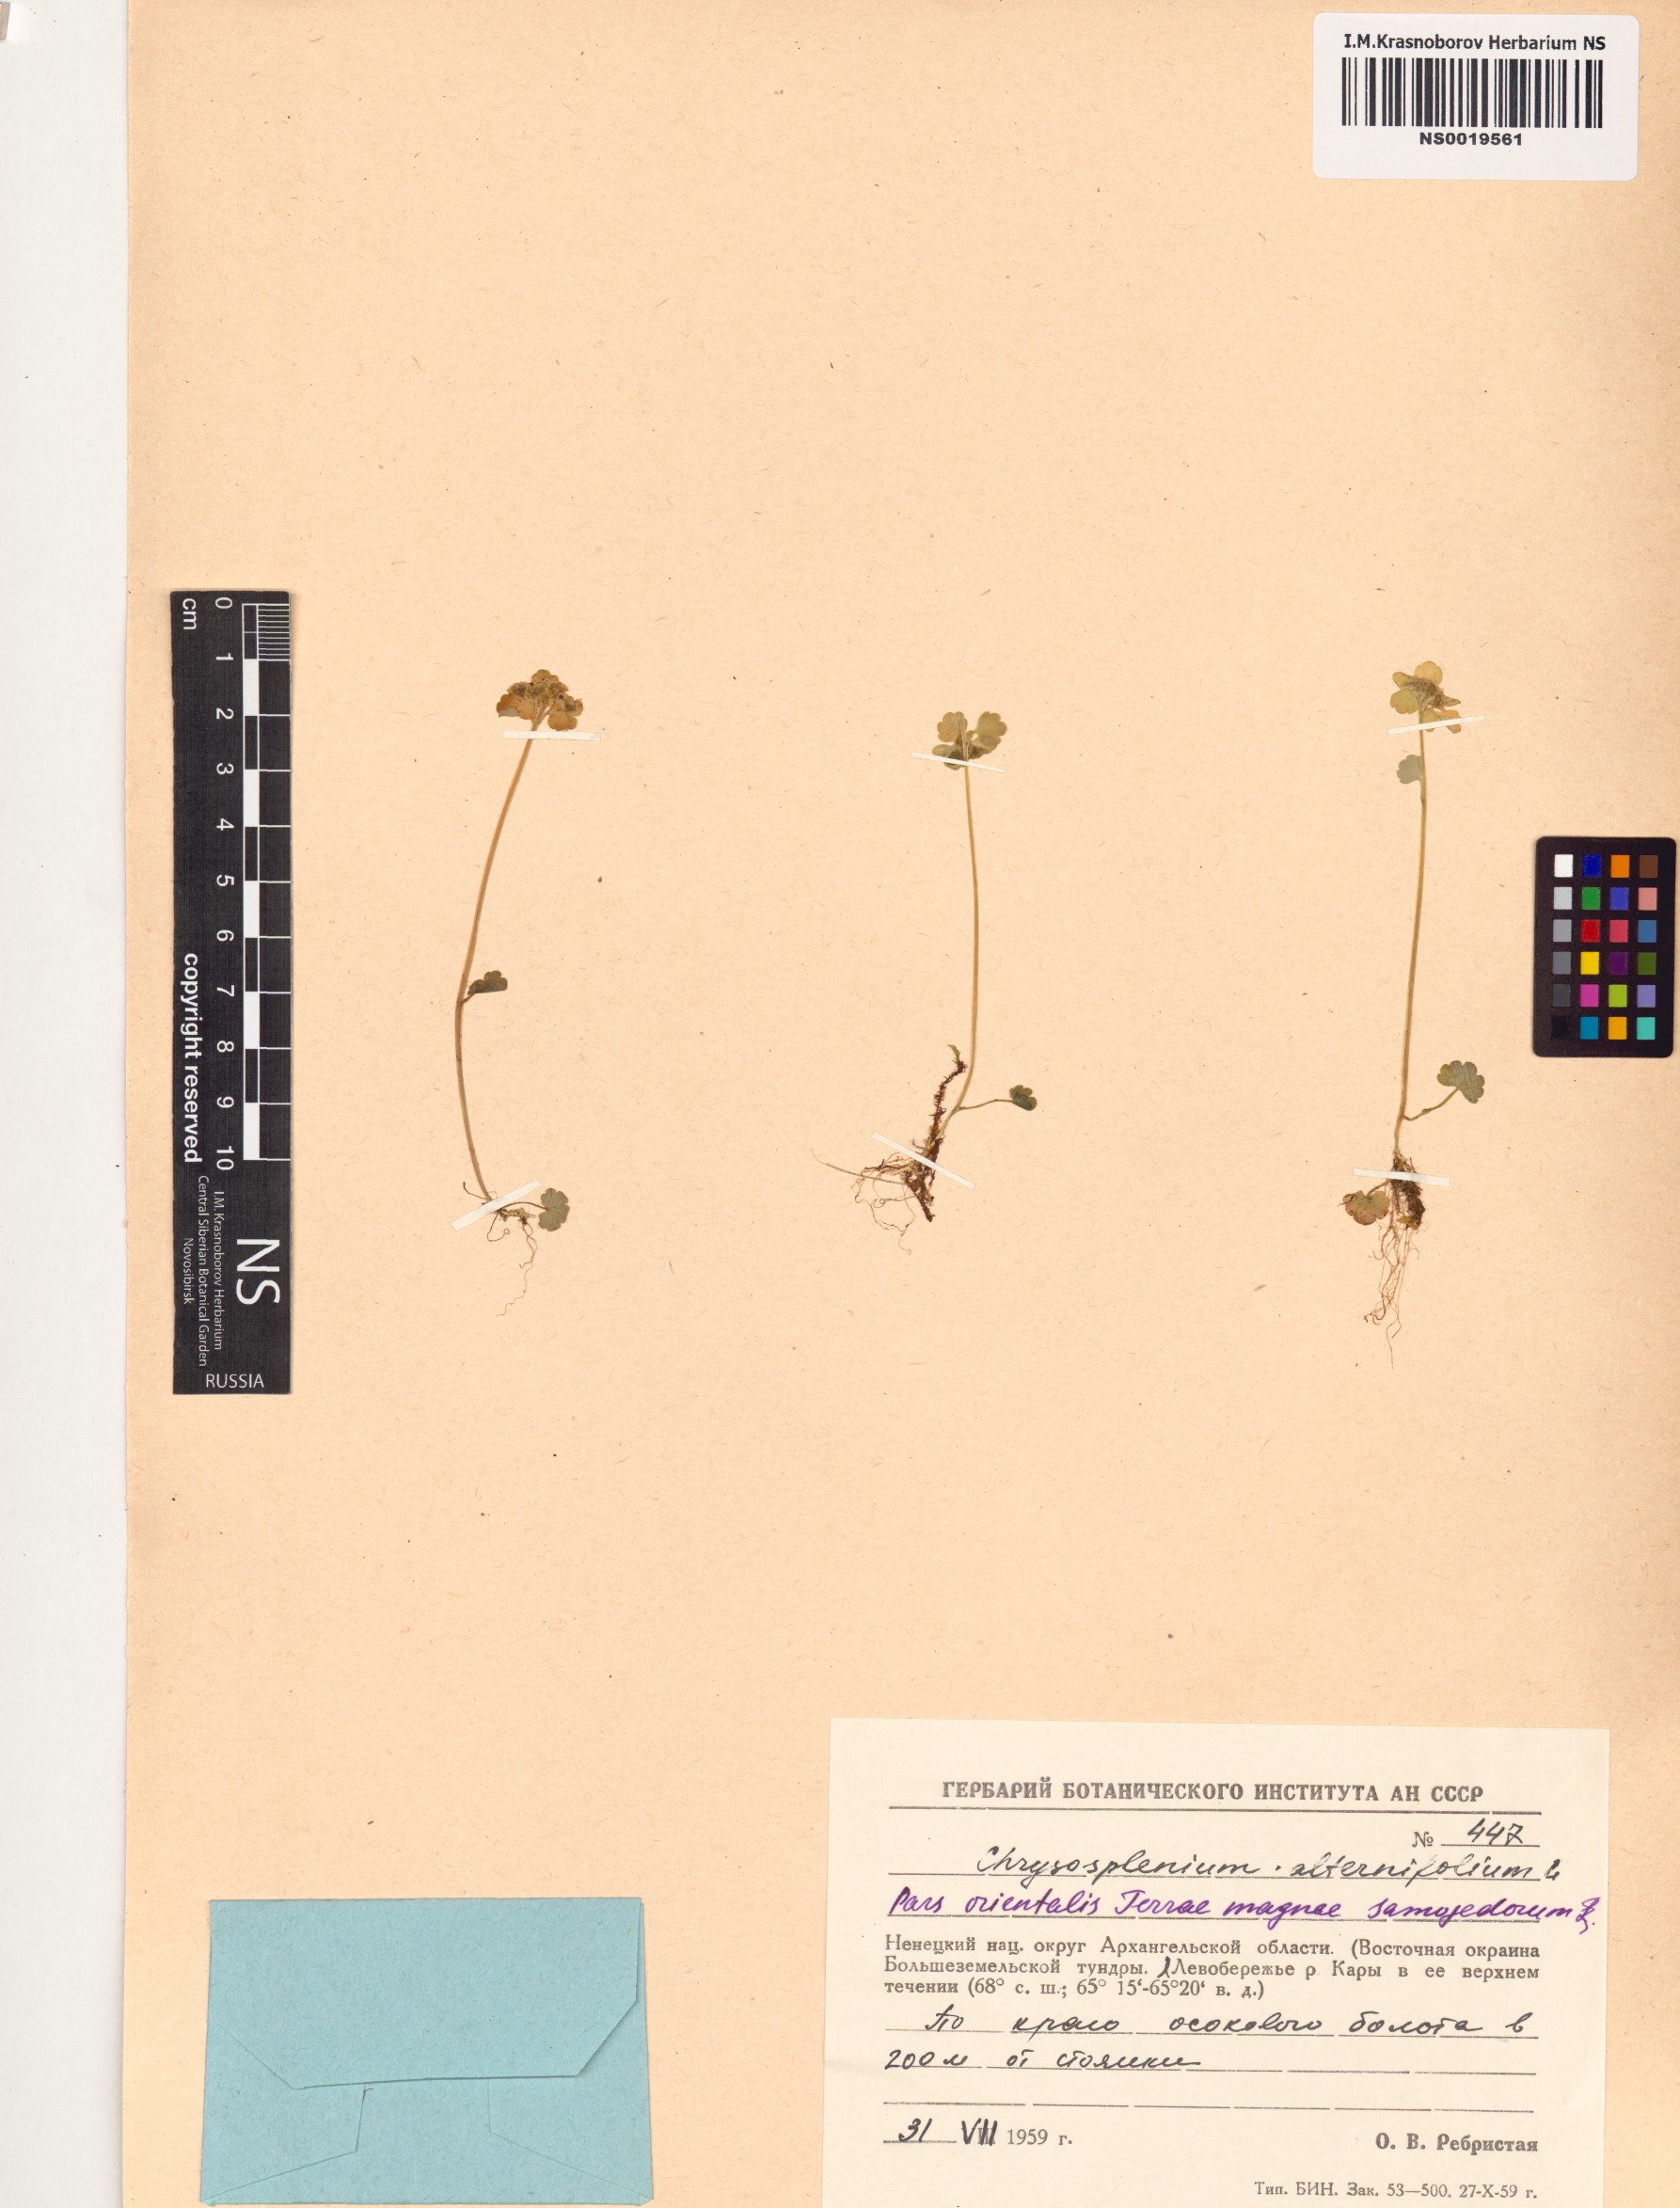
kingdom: Plantae
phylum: Tracheophyta
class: Magnoliopsida
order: Saxifragales
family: Saxifragaceae
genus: Chrysosplenium
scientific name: Chrysosplenium alternifolium
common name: Alternate-leaved golden-saxifrage
